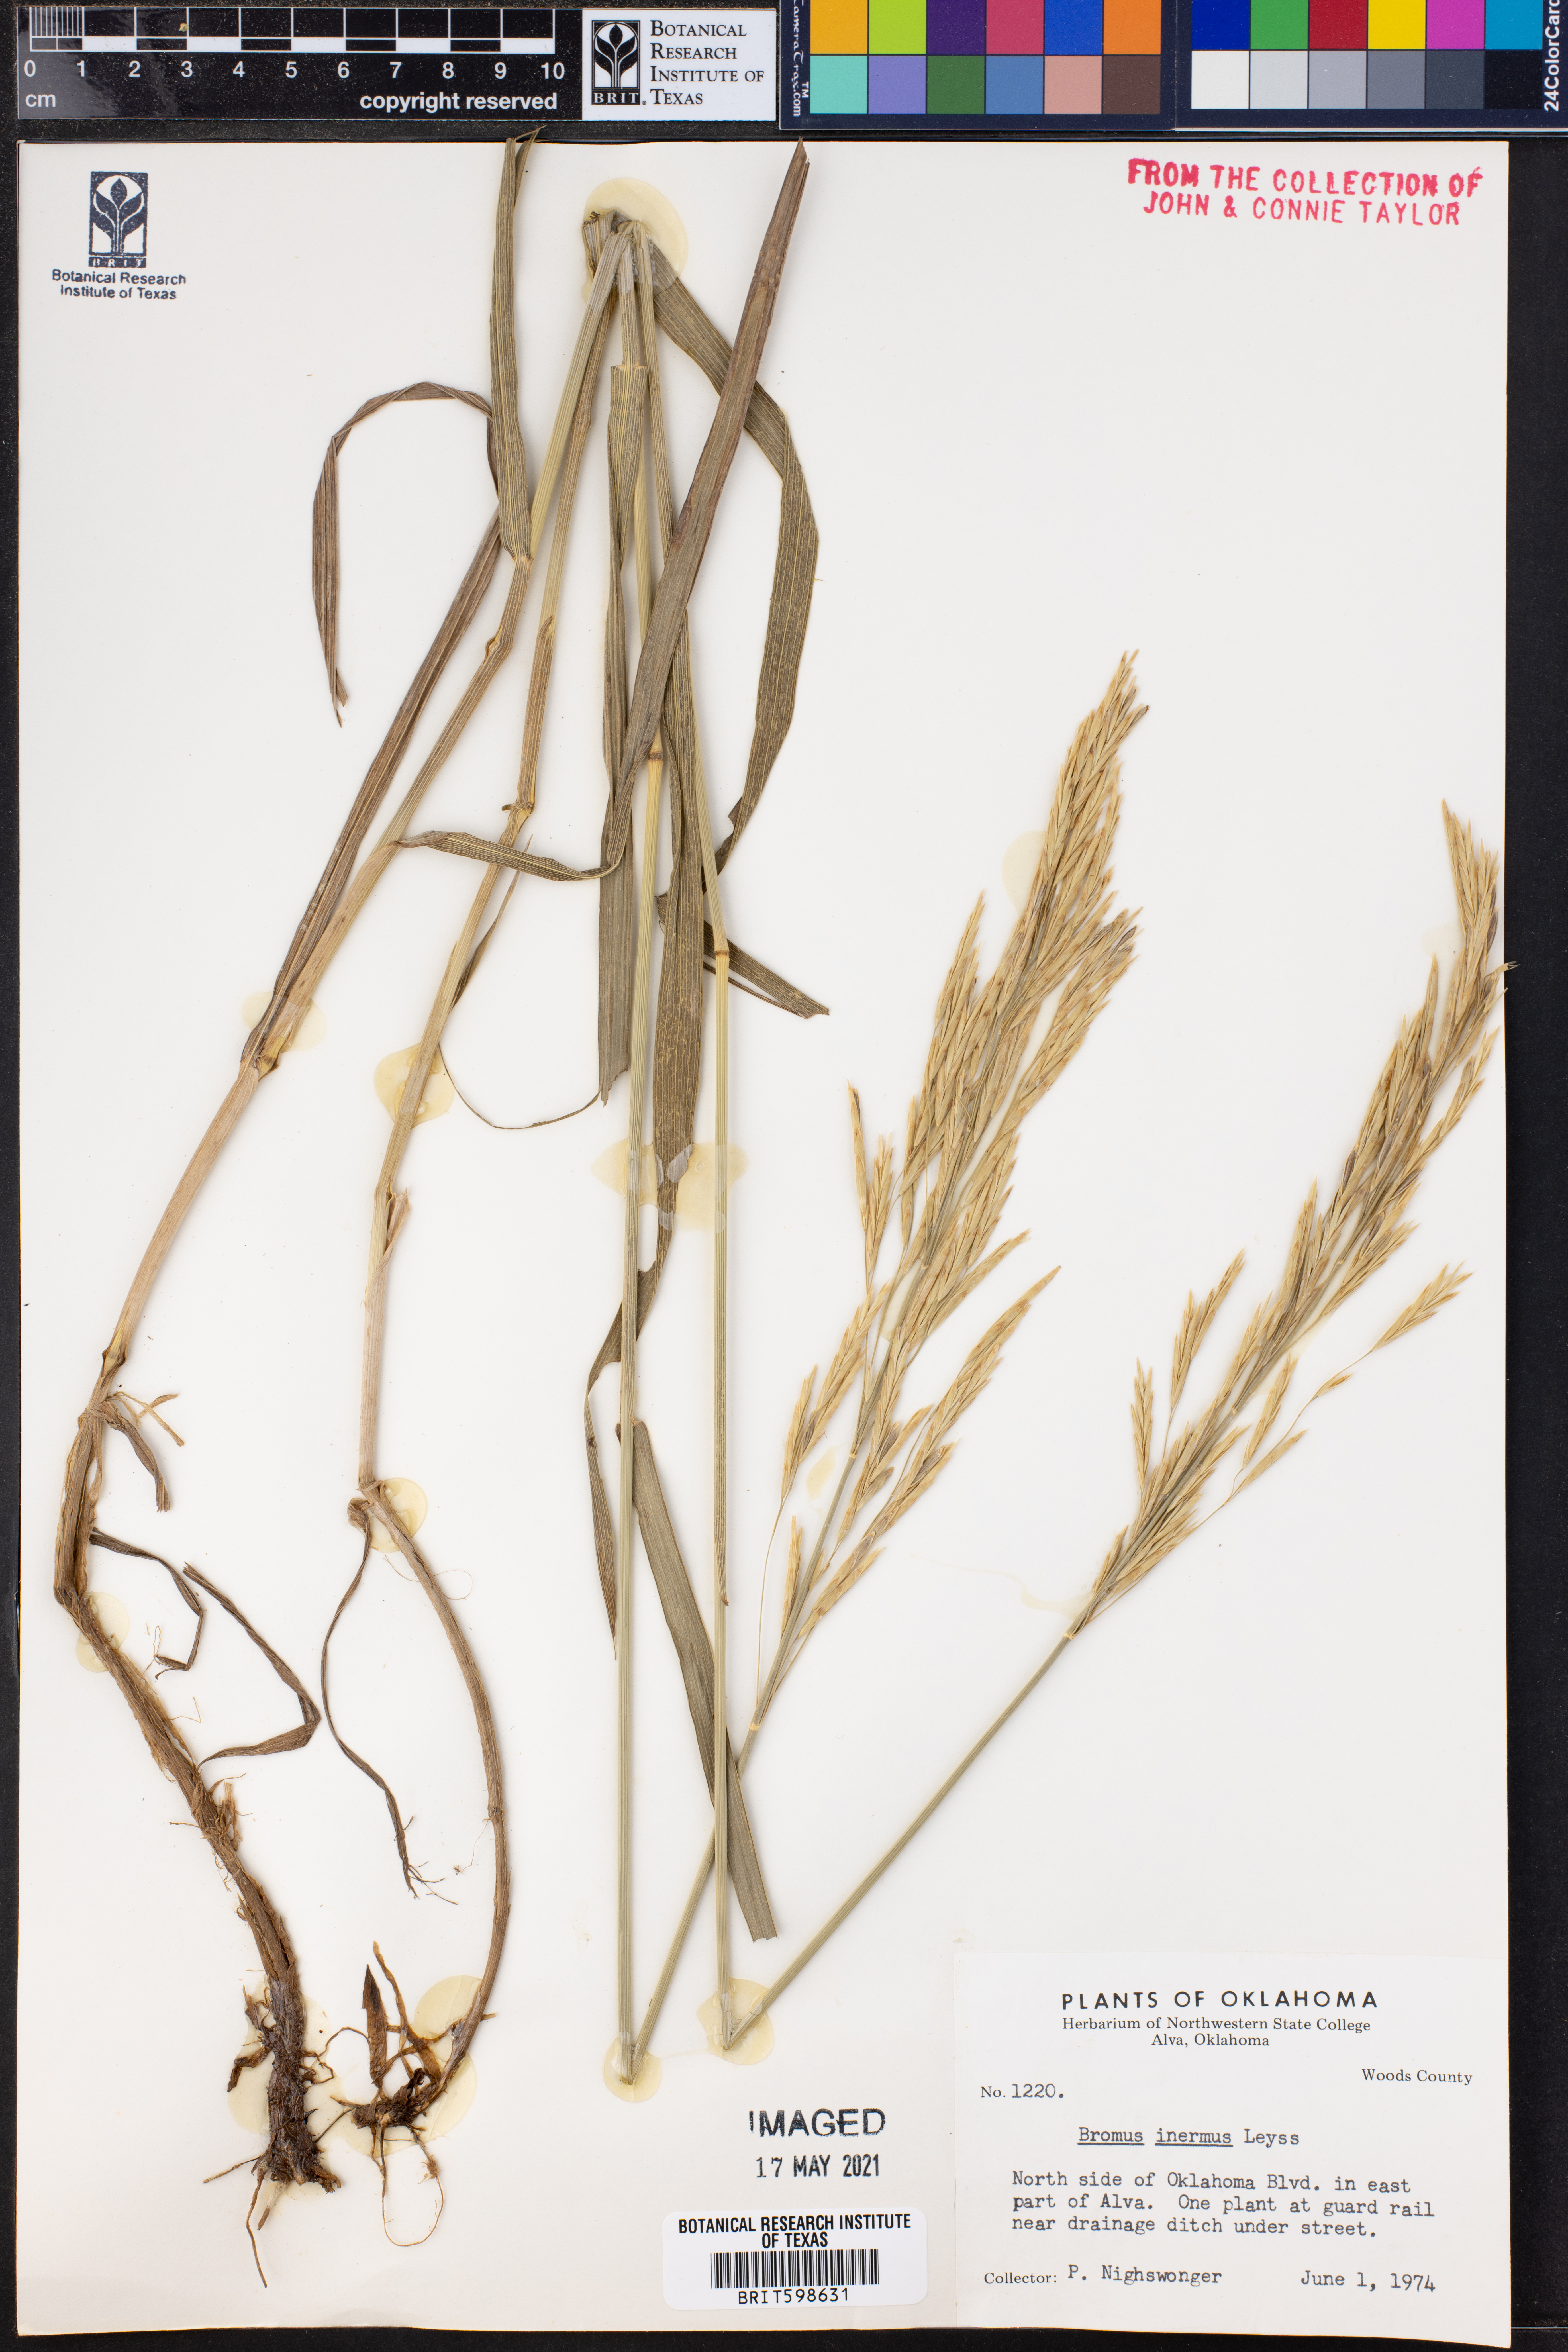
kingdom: Plantae
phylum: Tracheophyta
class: Liliopsida
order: Poales
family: Poaceae
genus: Bromus
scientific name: Bromus inermis
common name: Smooth brome
